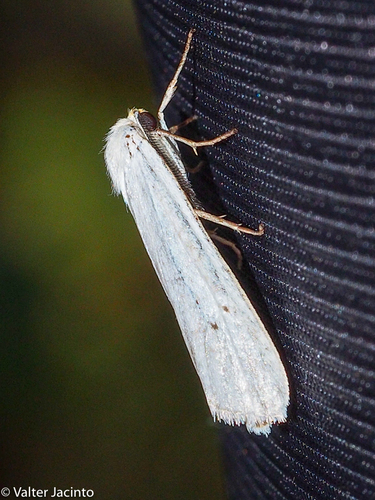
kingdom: Animalia
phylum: Arthropoda
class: Insecta
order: Lepidoptera
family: Erebidae
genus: Coscinia
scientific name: Coscinia cribraria
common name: Speckled footman
